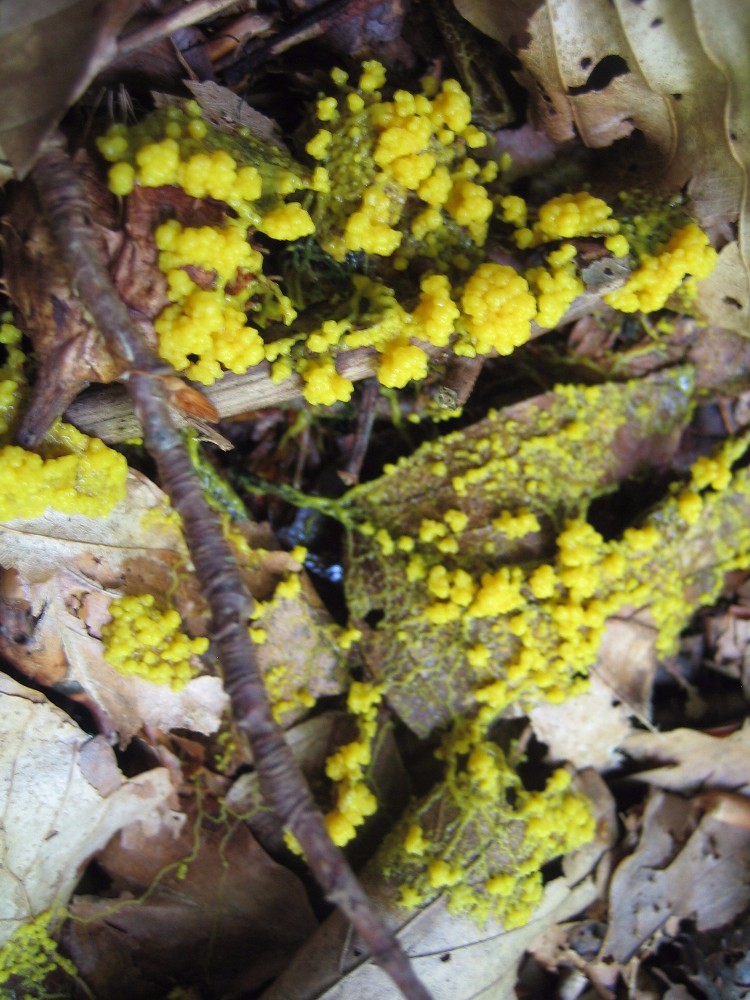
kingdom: Protozoa
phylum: Mycetozoa
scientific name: Mycetozoa
